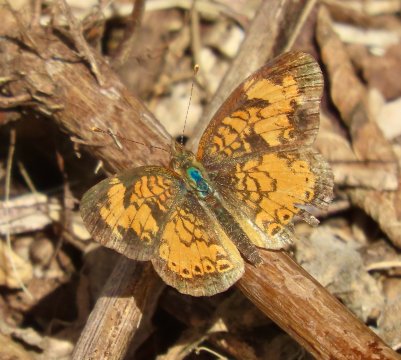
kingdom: Animalia
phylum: Arthropoda
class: Insecta
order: Lepidoptera
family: Nymphalidae
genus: Phyciodes
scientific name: Phyciodes tharos
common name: Pearl Crescent
